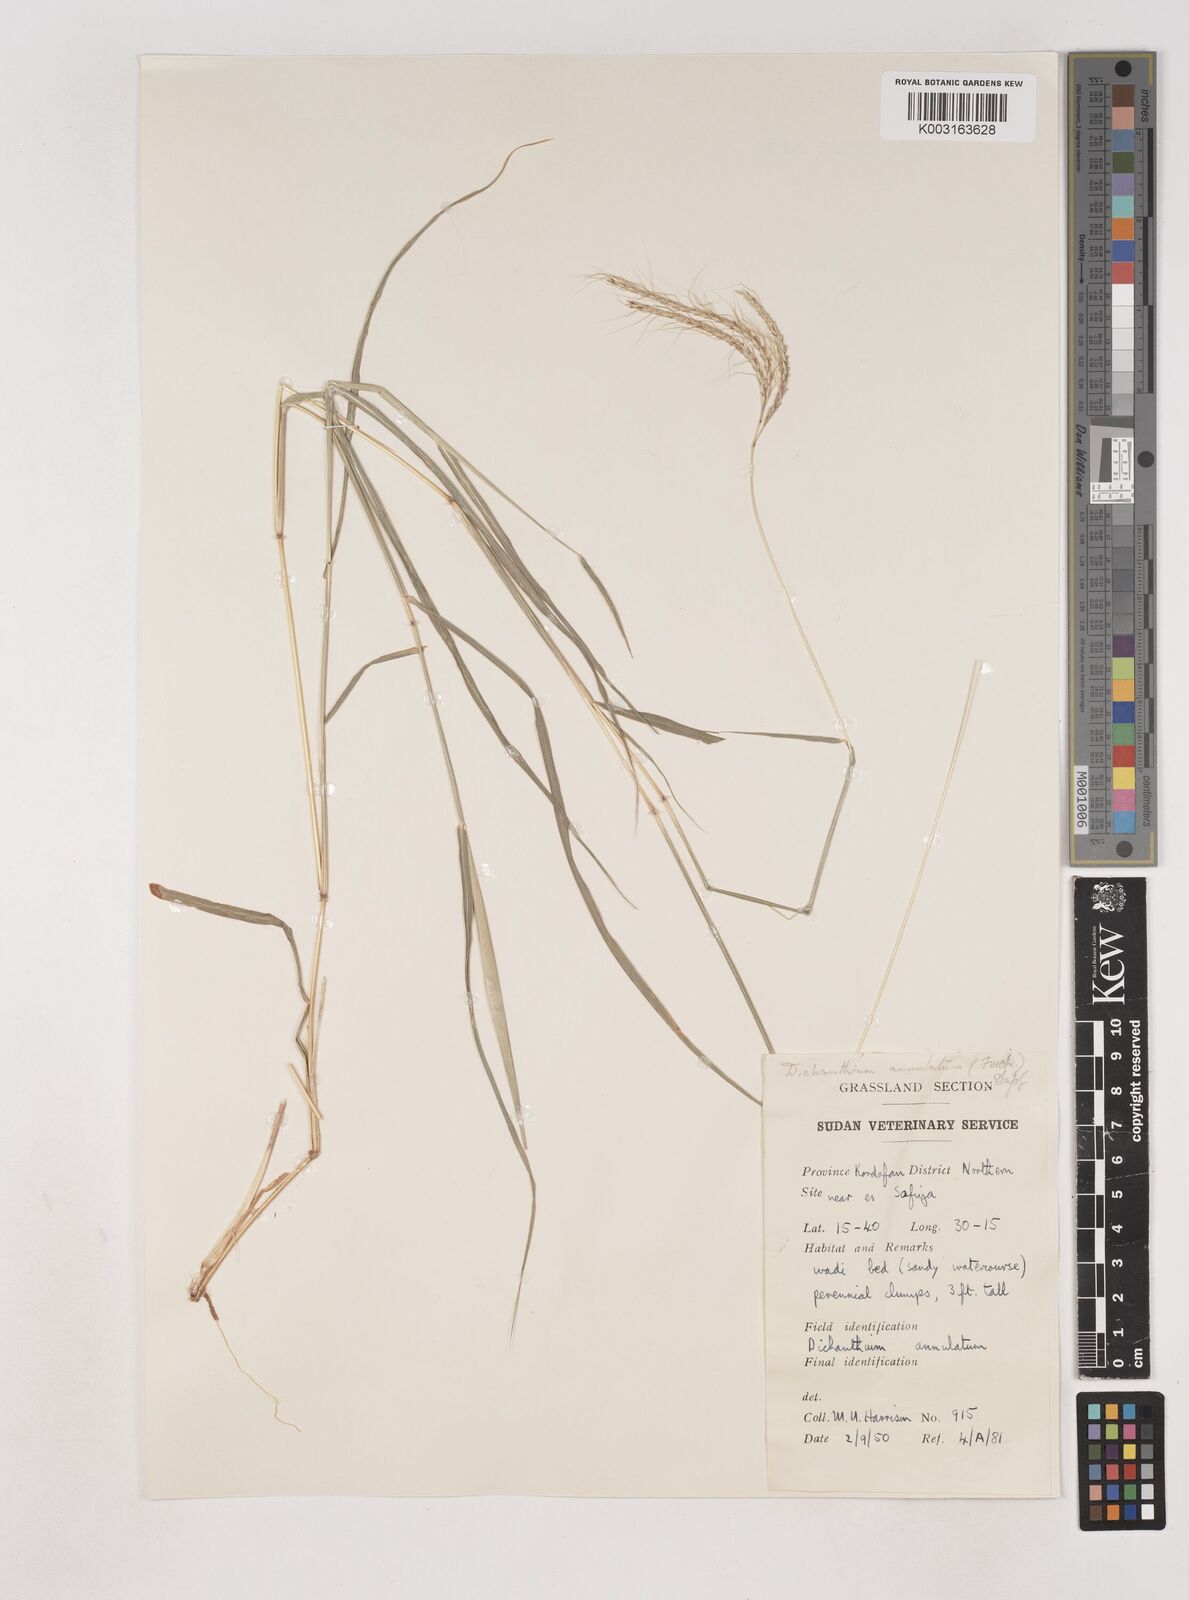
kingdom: Plantae
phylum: Tracheophyta
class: Liliopsida
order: Poales
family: Poaceae
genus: Dichanthium
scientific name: Dichanthium annulatum
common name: Kleberg's bluestem
